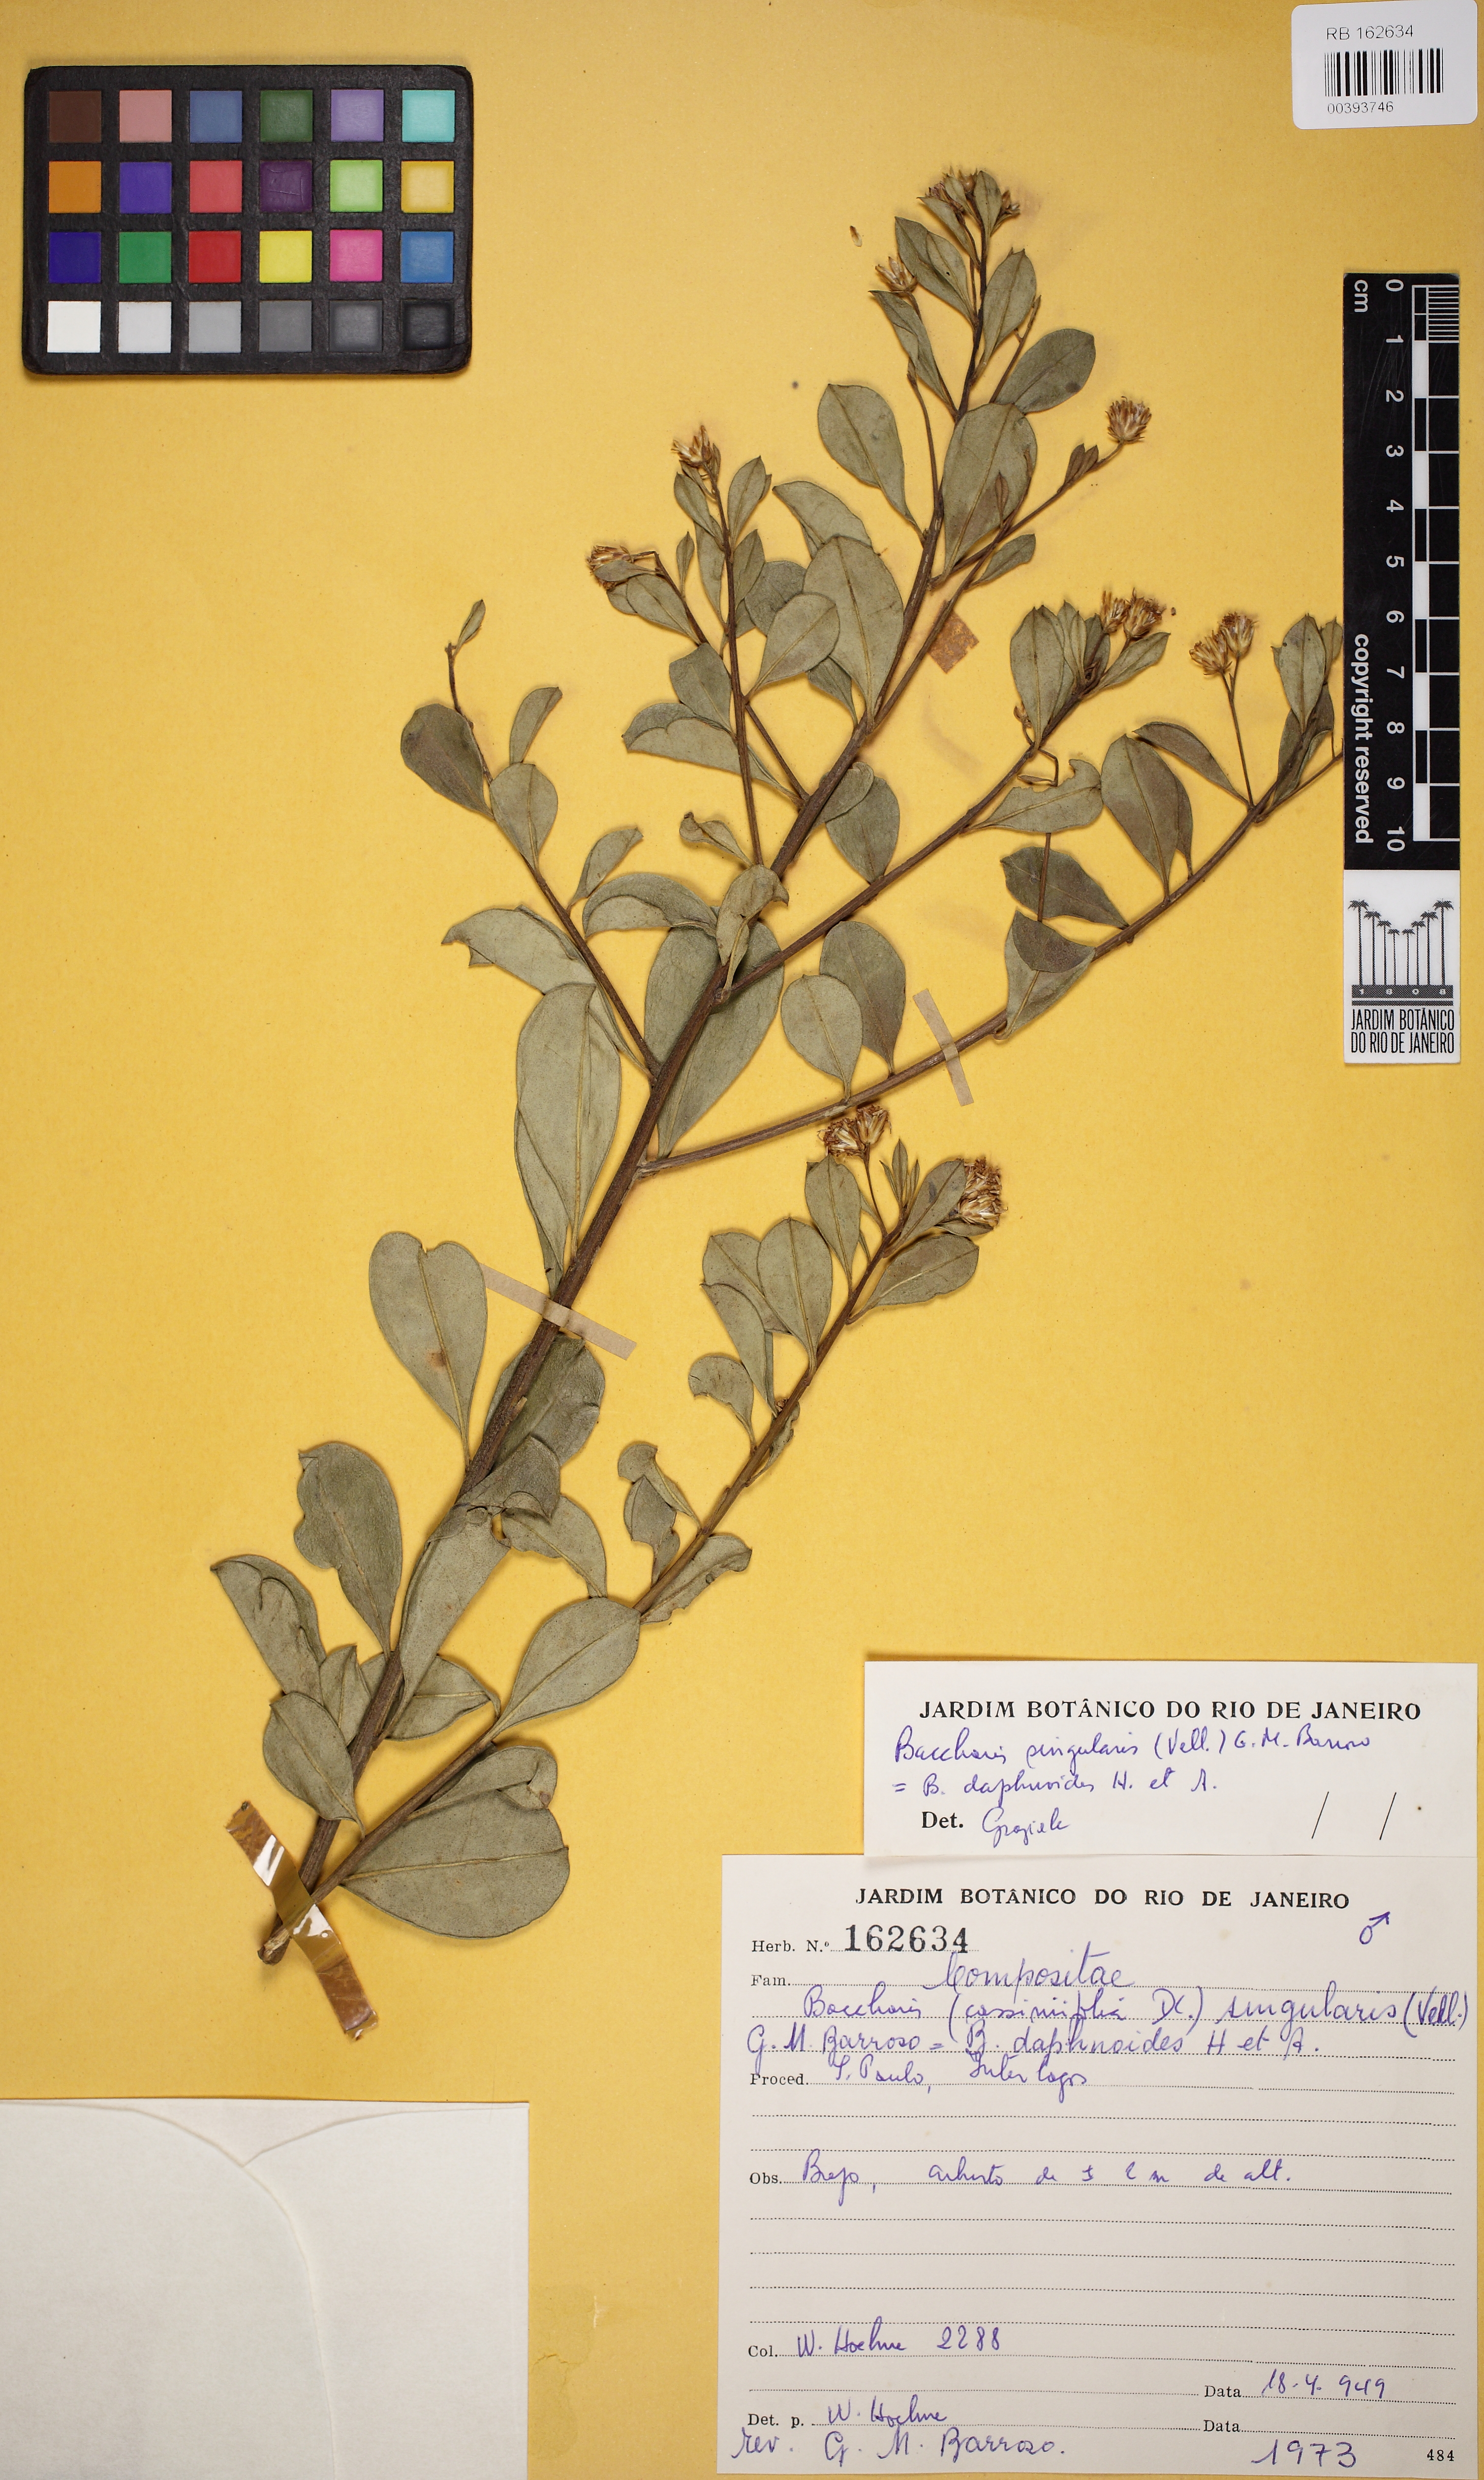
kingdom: Plantae
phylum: Tracheophyta
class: Magnoliopsida
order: Asterales
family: Asteraceae
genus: Baccharis
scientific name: Baccharis singularis
